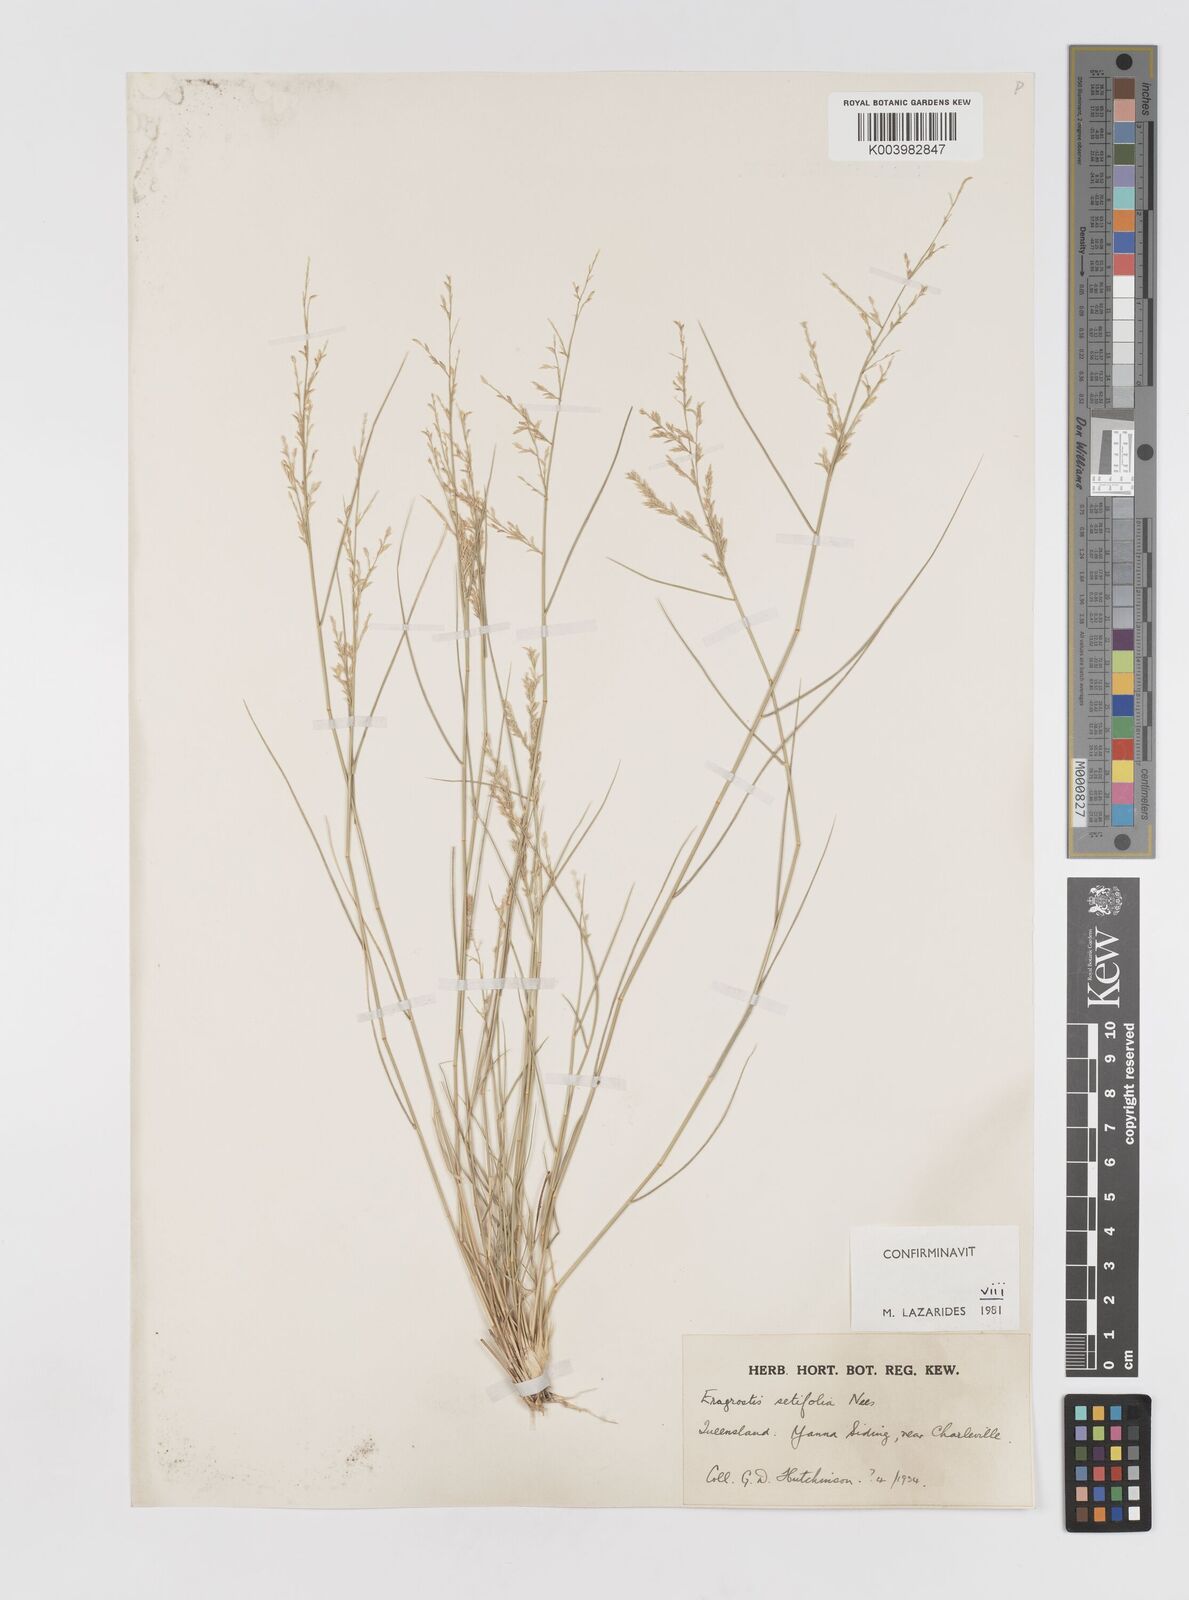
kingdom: Plantae
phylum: Tracheophyta
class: Liliopsida
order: Poales
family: Poaceae
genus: Eragrostis
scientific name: Eragrostis setifolia
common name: Bristleleaf lovegrass
